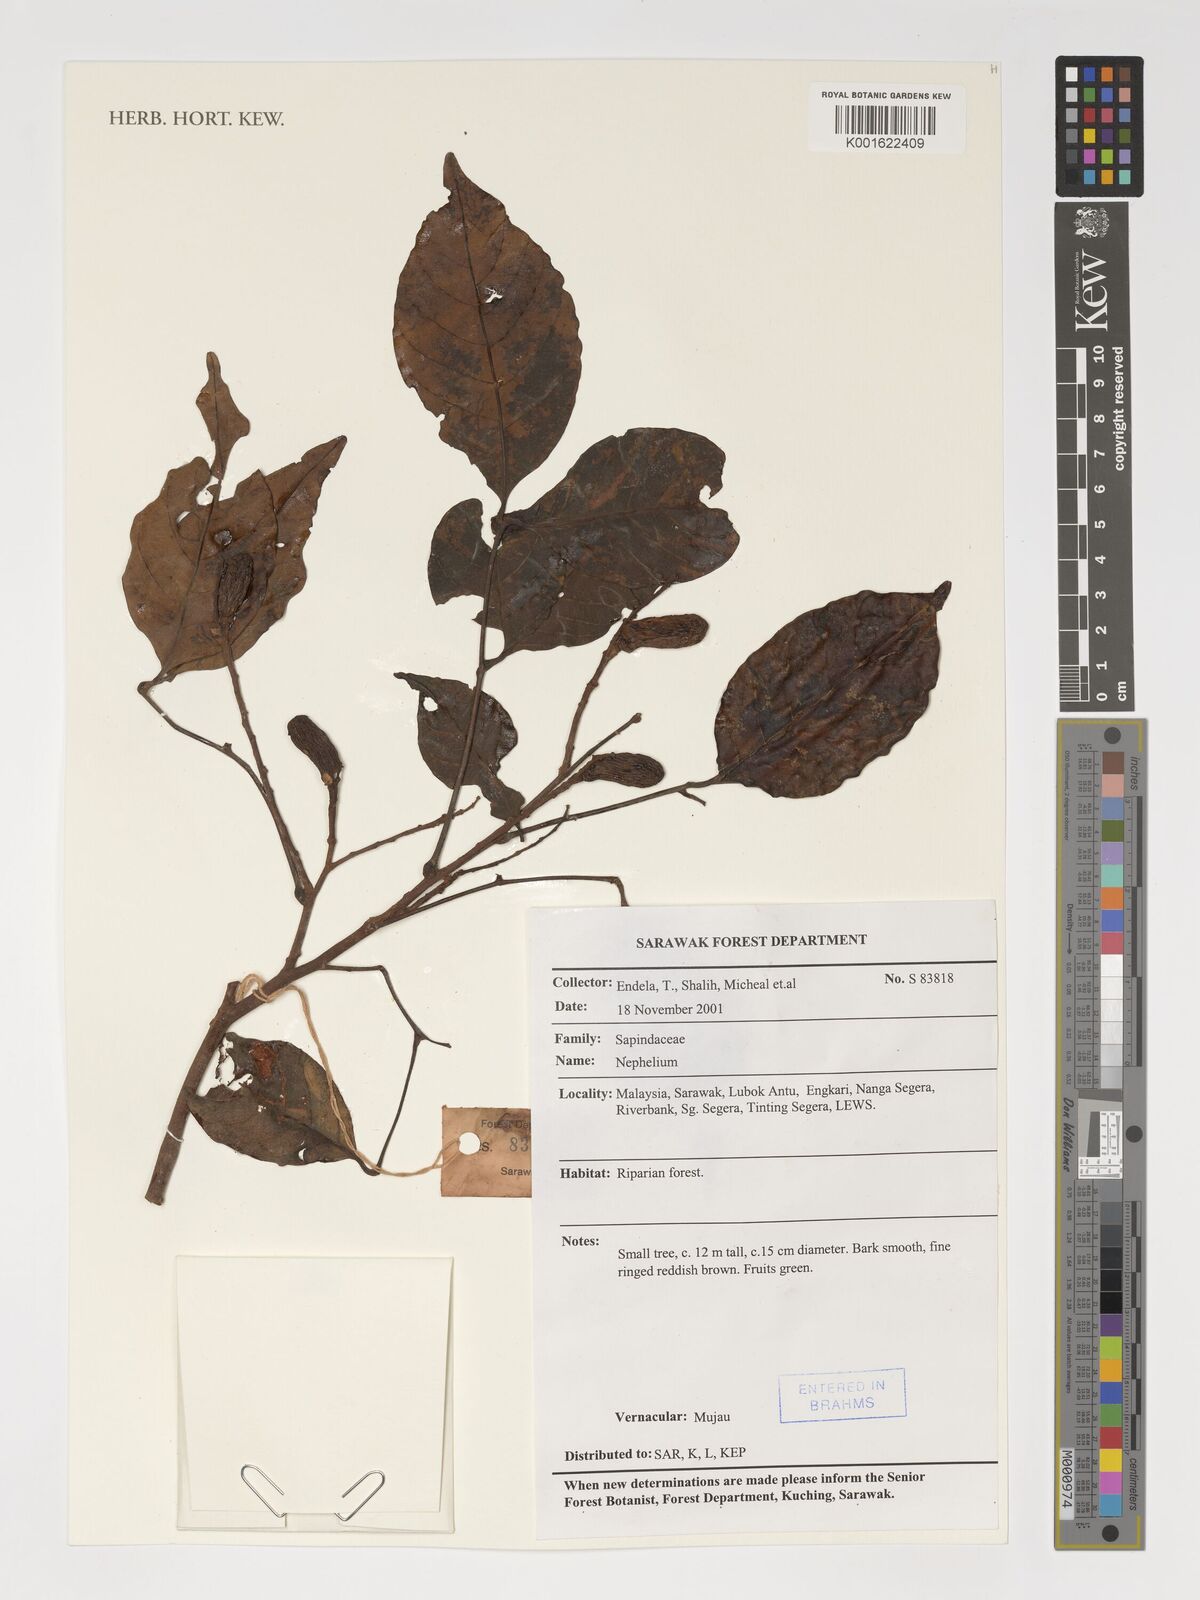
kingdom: Plantae
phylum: Tracheophyta
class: Magnoliopsida
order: Sapindales
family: Sapindaceae
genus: Nephelium
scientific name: Nephelium
